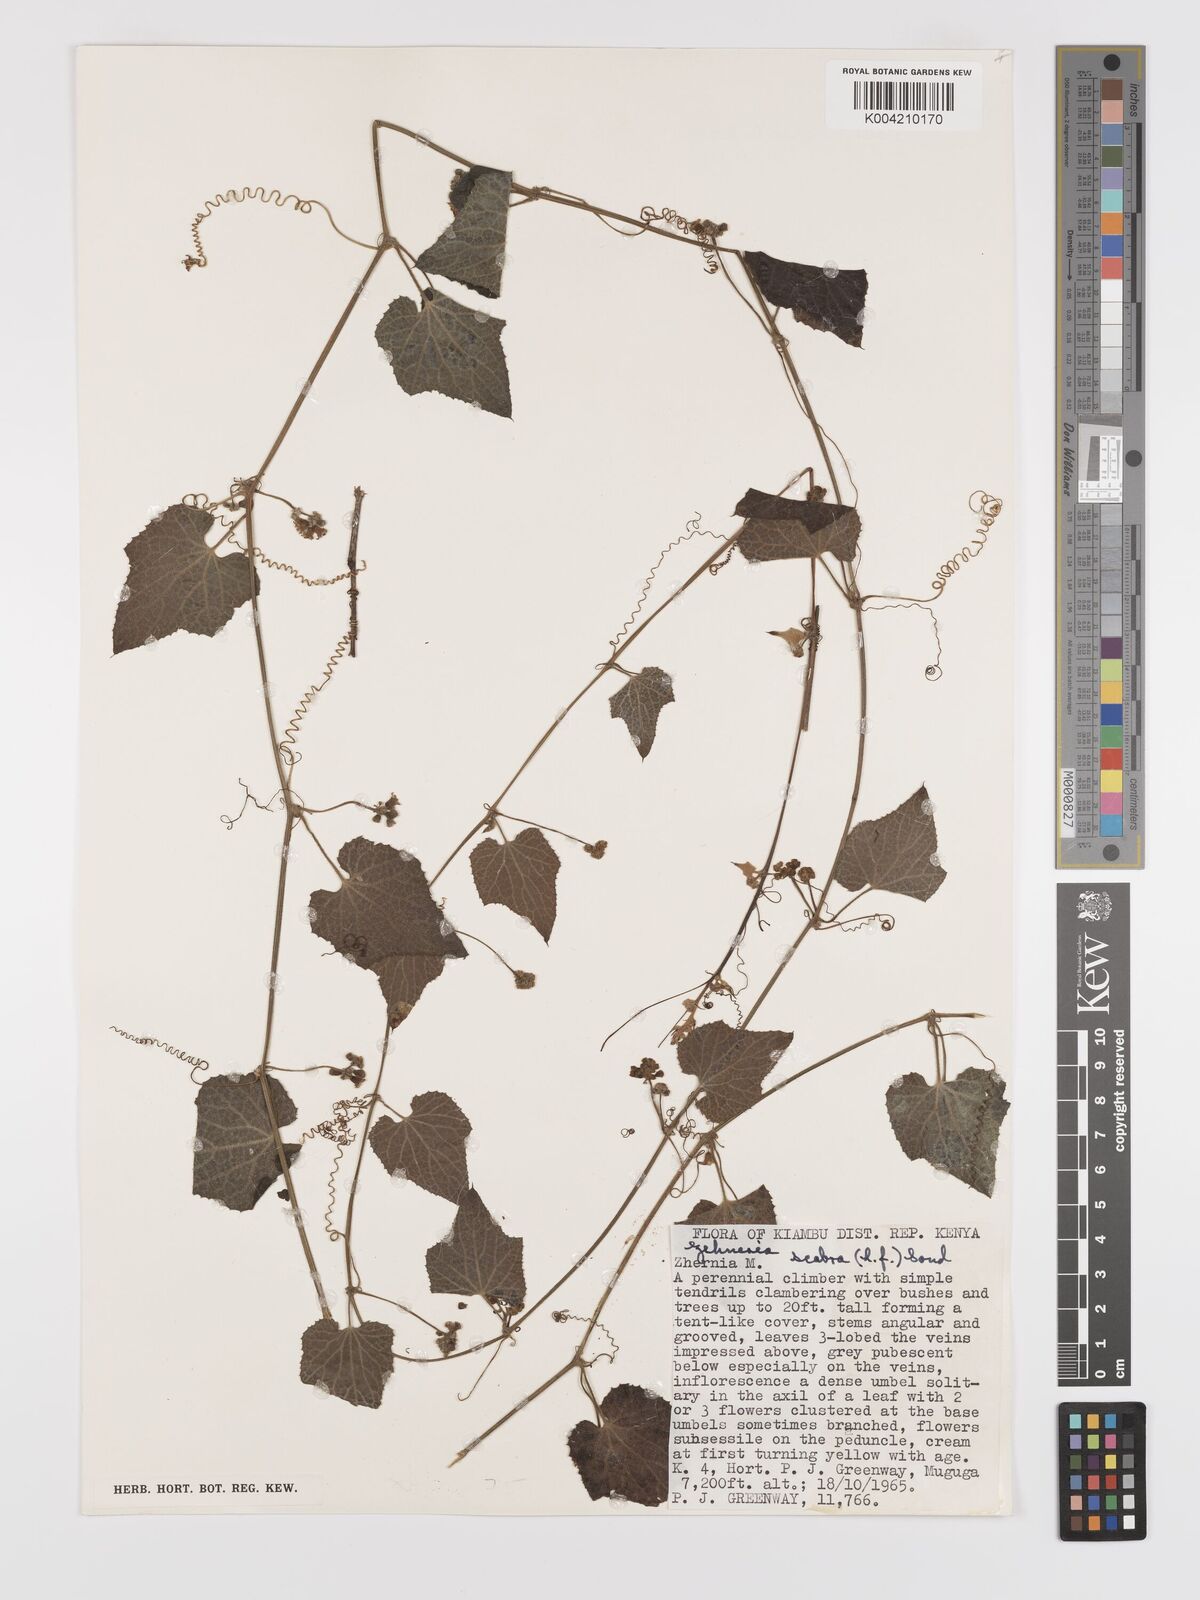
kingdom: Plantae
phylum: Tracheophyta
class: Magnoliopsida
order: Cucurbitales
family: Cucurbitaceae
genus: Zehneria
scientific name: Zehneria scabra
